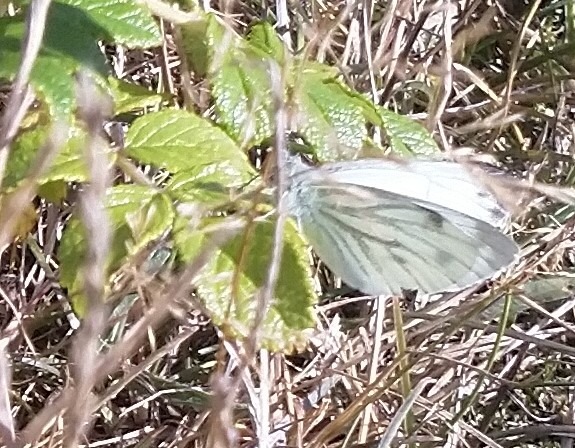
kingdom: Animalia
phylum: Arthropoda
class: Insecta
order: Lepidoptera
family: Pieridae
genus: Pieris
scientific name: Pieris napi
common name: Grønåret kålsommerfugl
